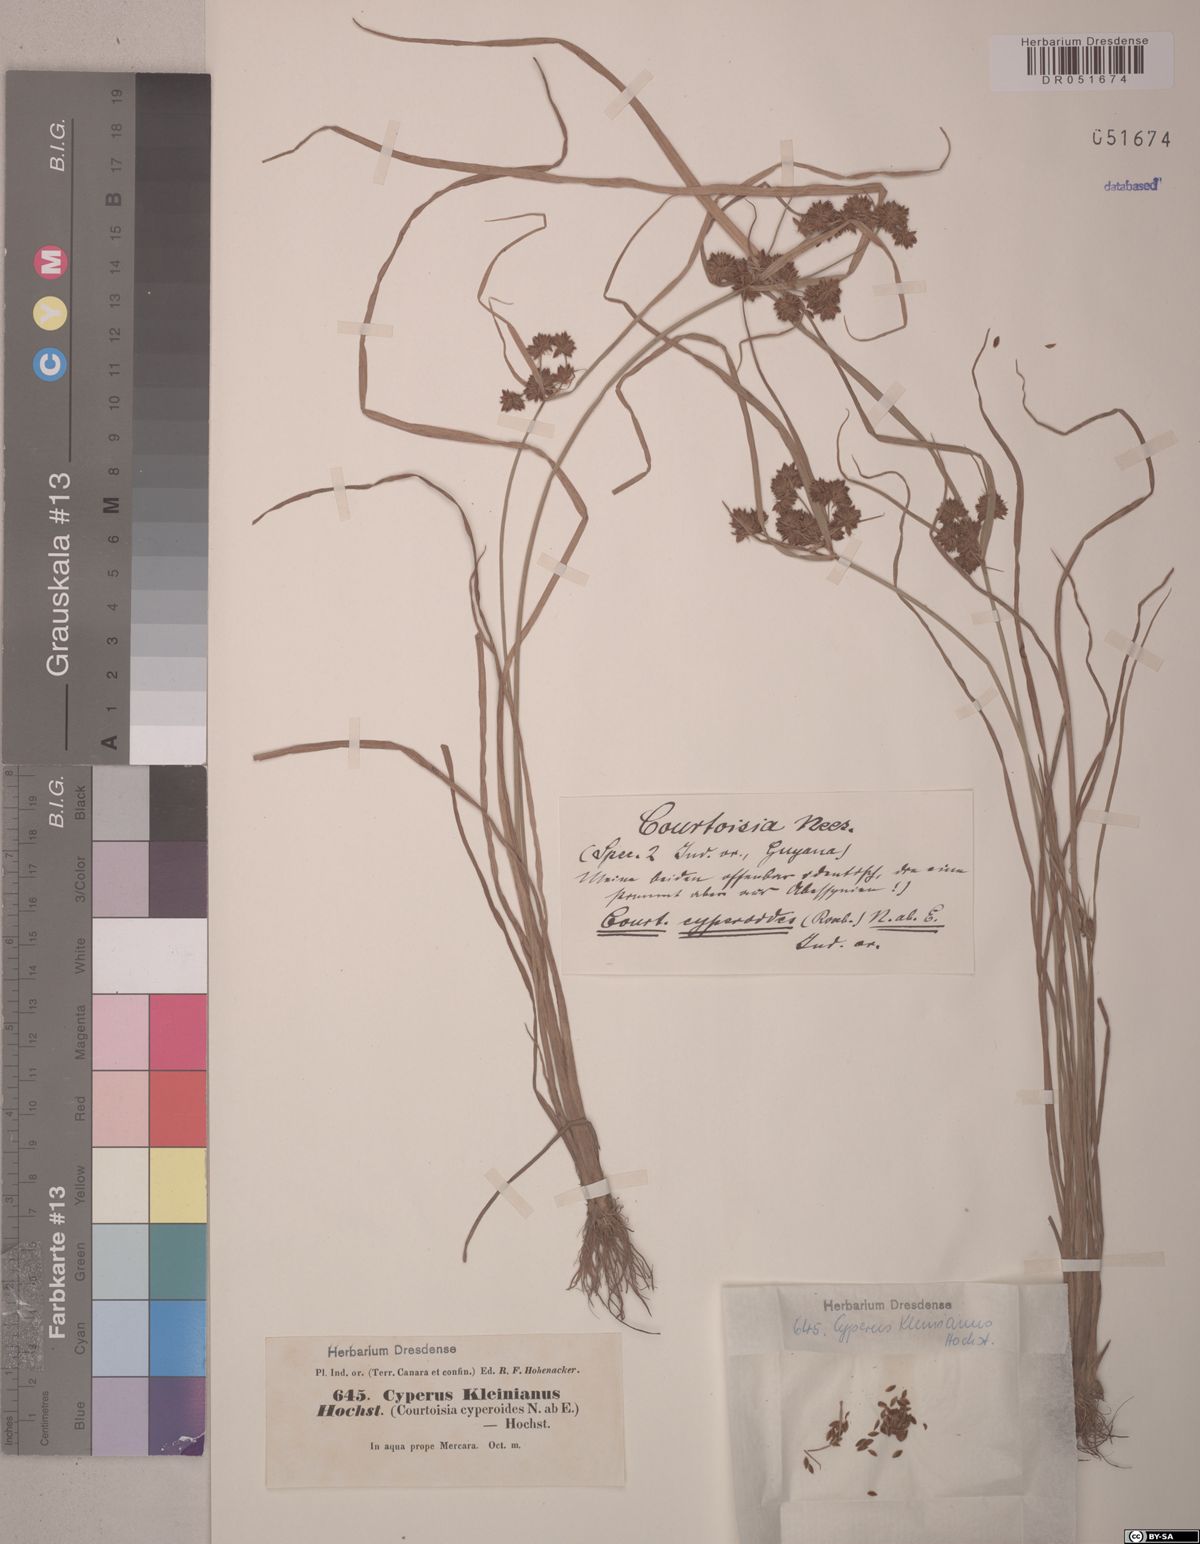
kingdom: Plantae
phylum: Tracheophyta
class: Liliopsida
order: Poales
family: Cyperaceae
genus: Cyperus
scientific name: Cyperus pseudokyllingioides
